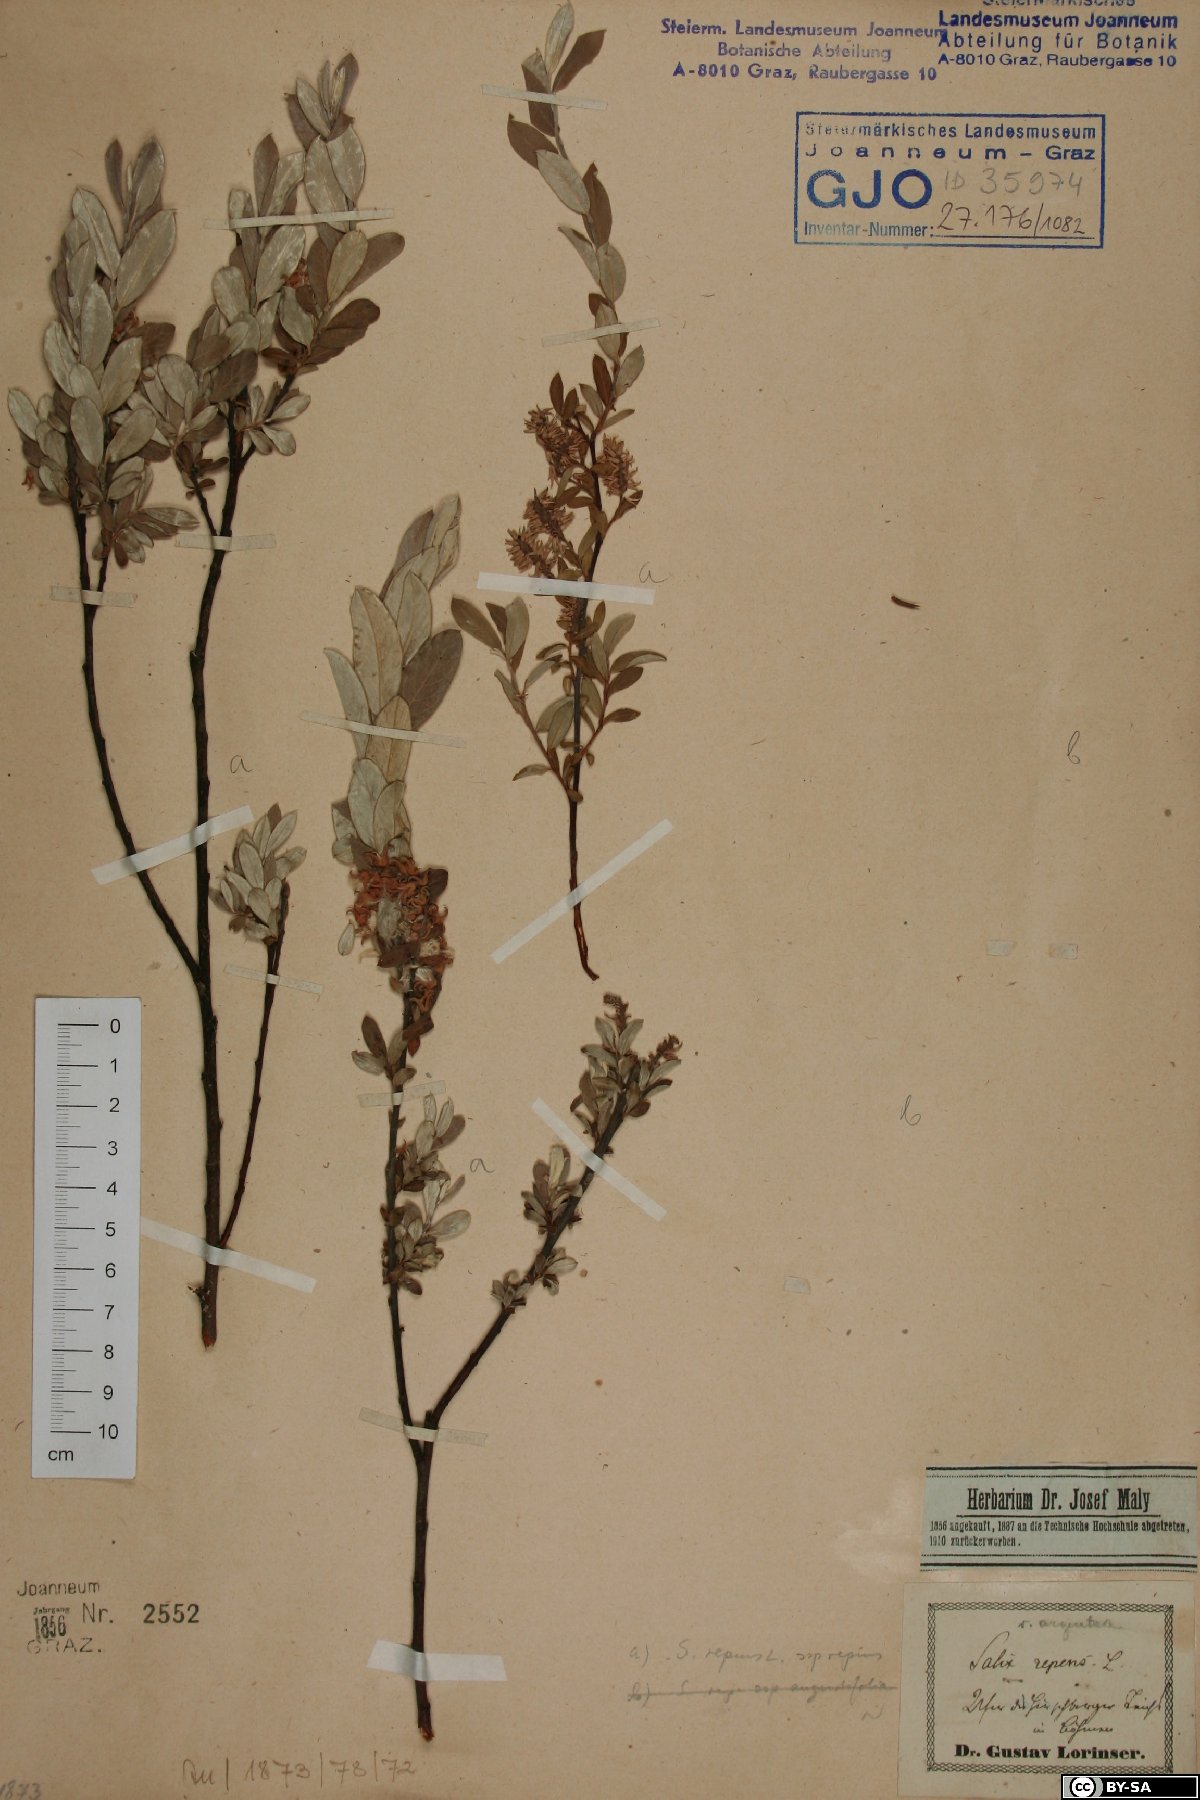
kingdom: Plantae
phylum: Tracheophyta
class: Magnoliopsida
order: Malpighiales
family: Salicaceae
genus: Salix
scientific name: Salix repens
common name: Creeping willow
